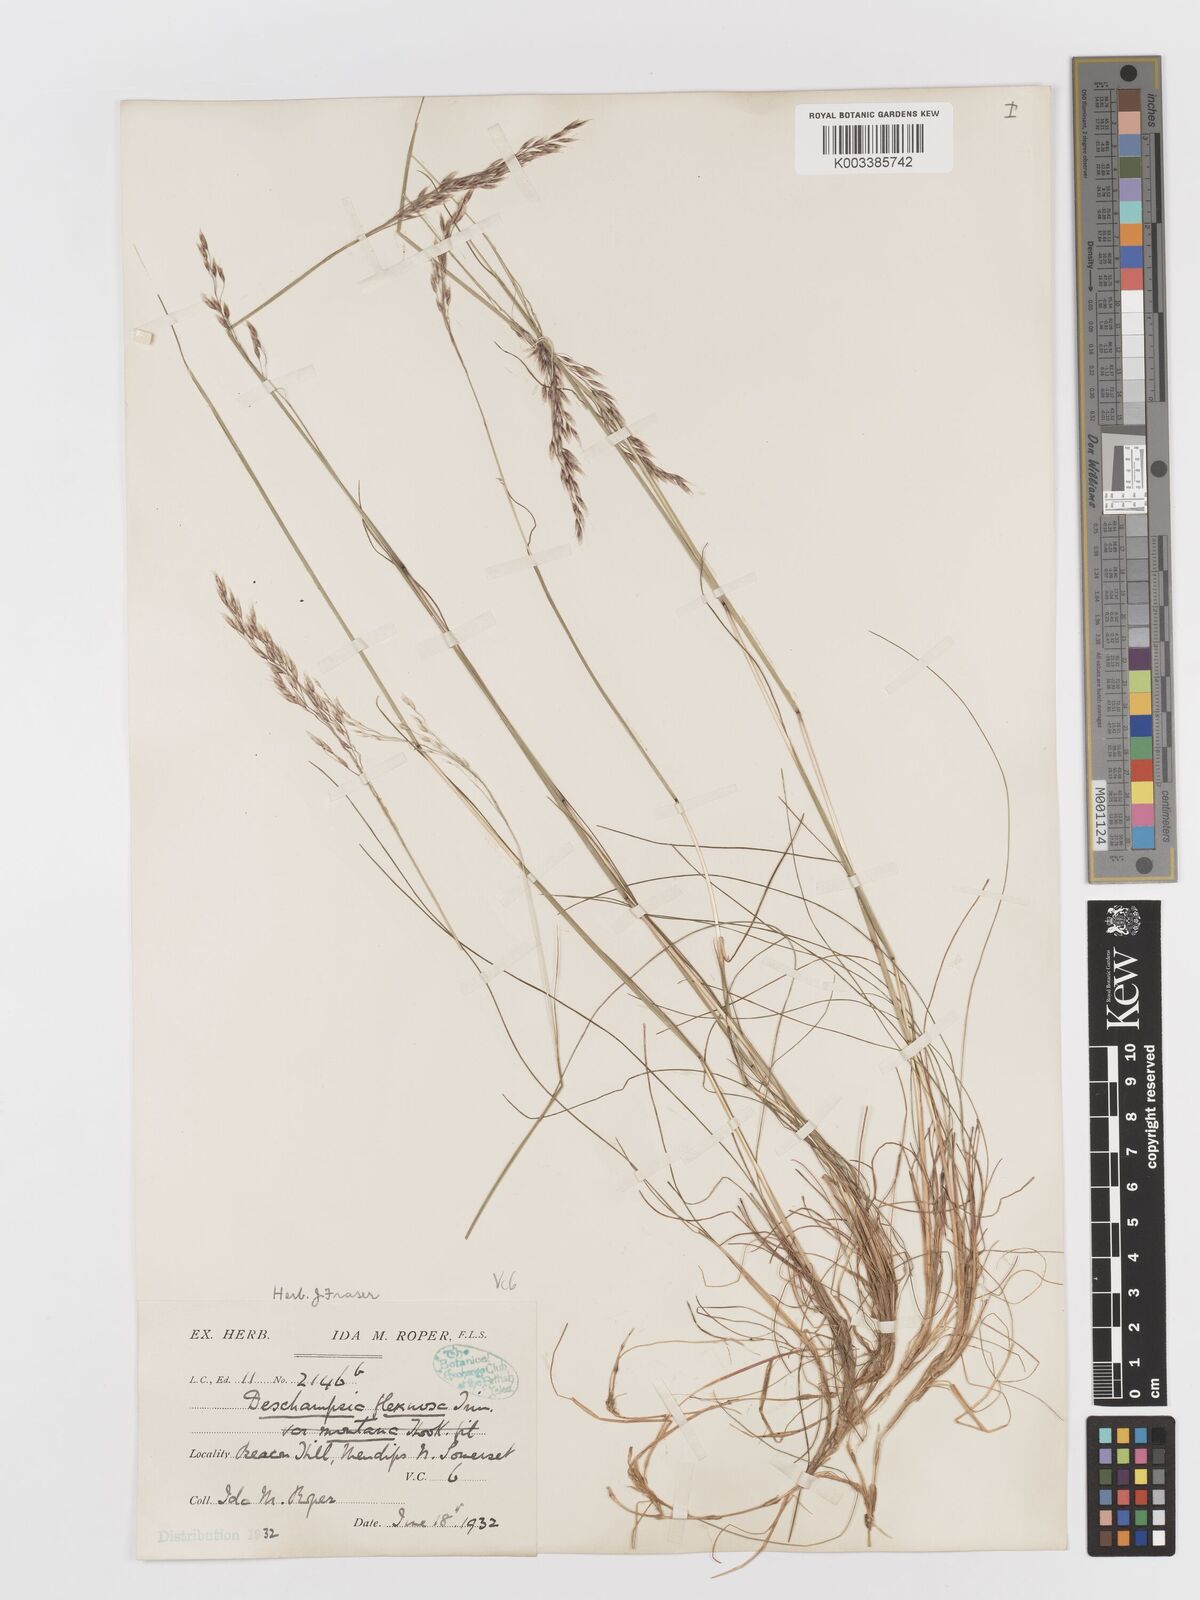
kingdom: Plantae
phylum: Tracheophyta
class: Liliopsida
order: Poales
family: Poaceae
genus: Avenella
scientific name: Avenella flexuosa
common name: Wavy hairgrass
